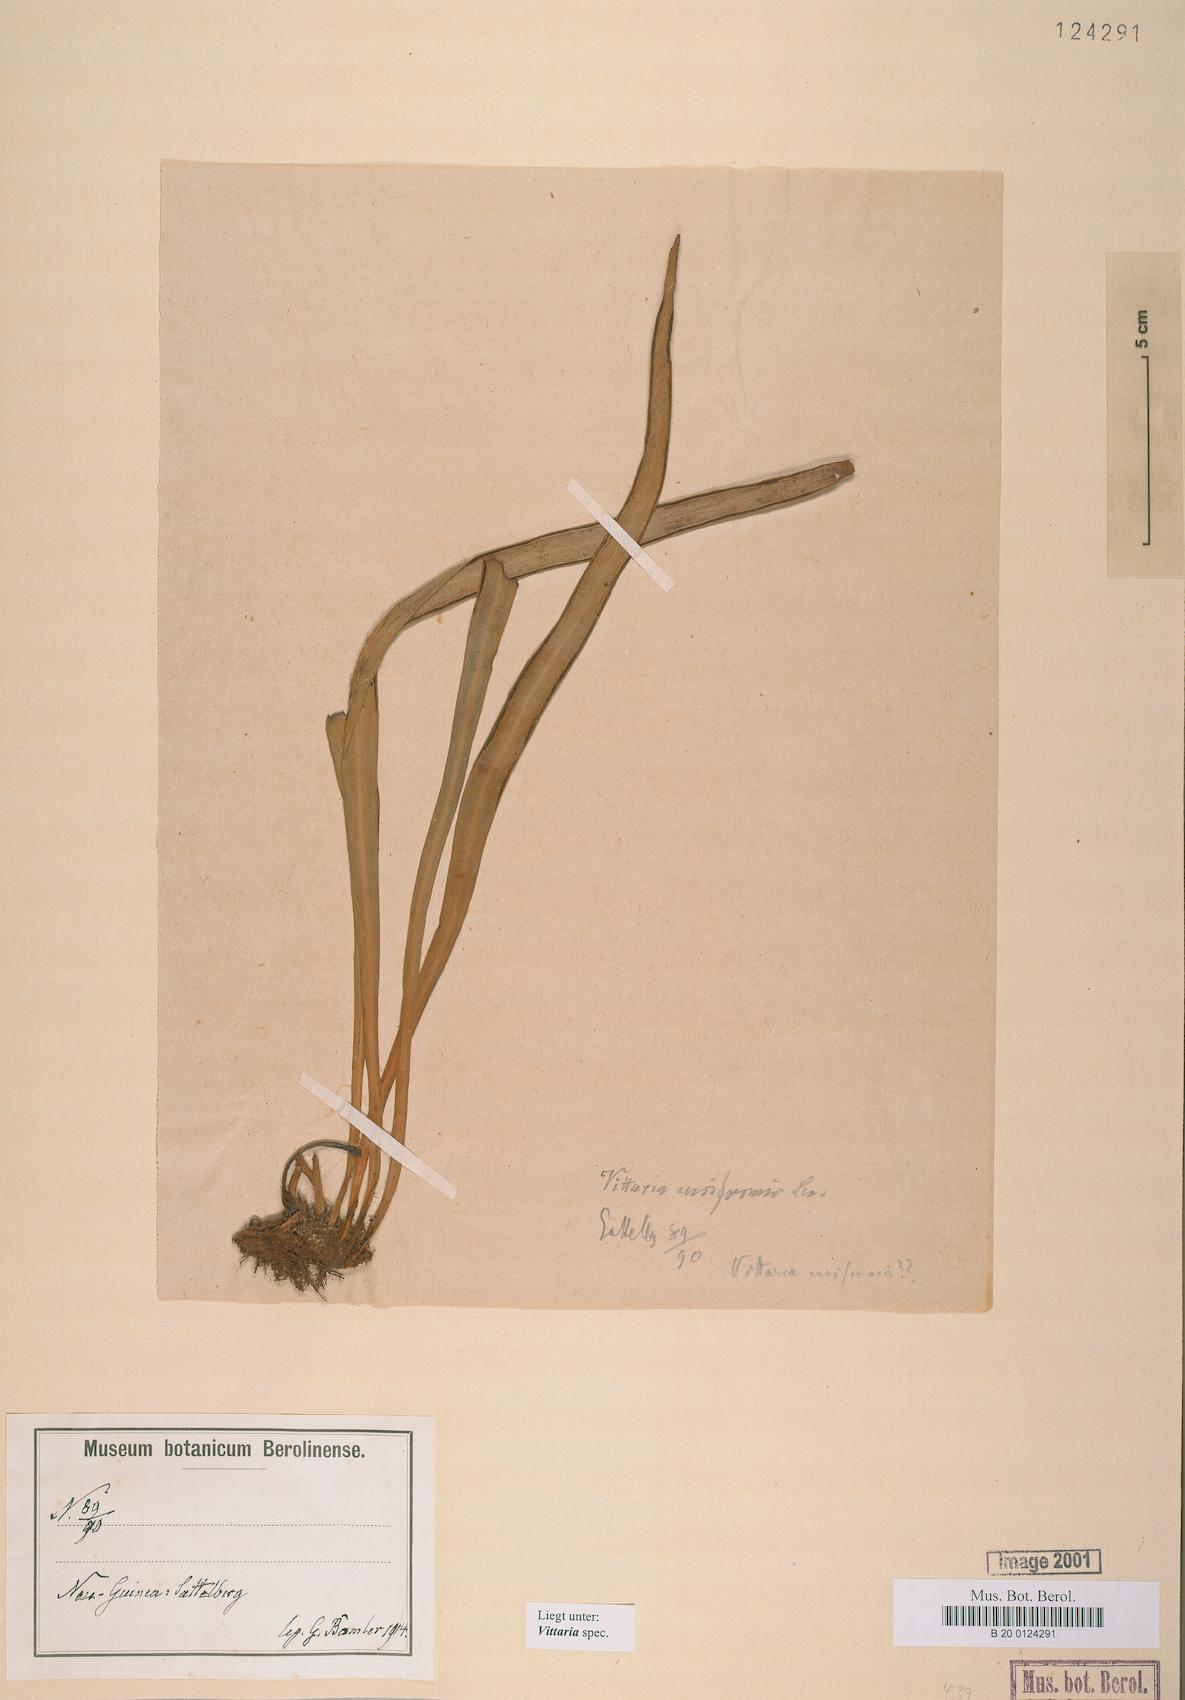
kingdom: Plantae
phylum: Tracheophyta
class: Polypodiopsida
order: Polypodiales
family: Pteridaceae
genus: Vittaria
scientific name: Vittaria
